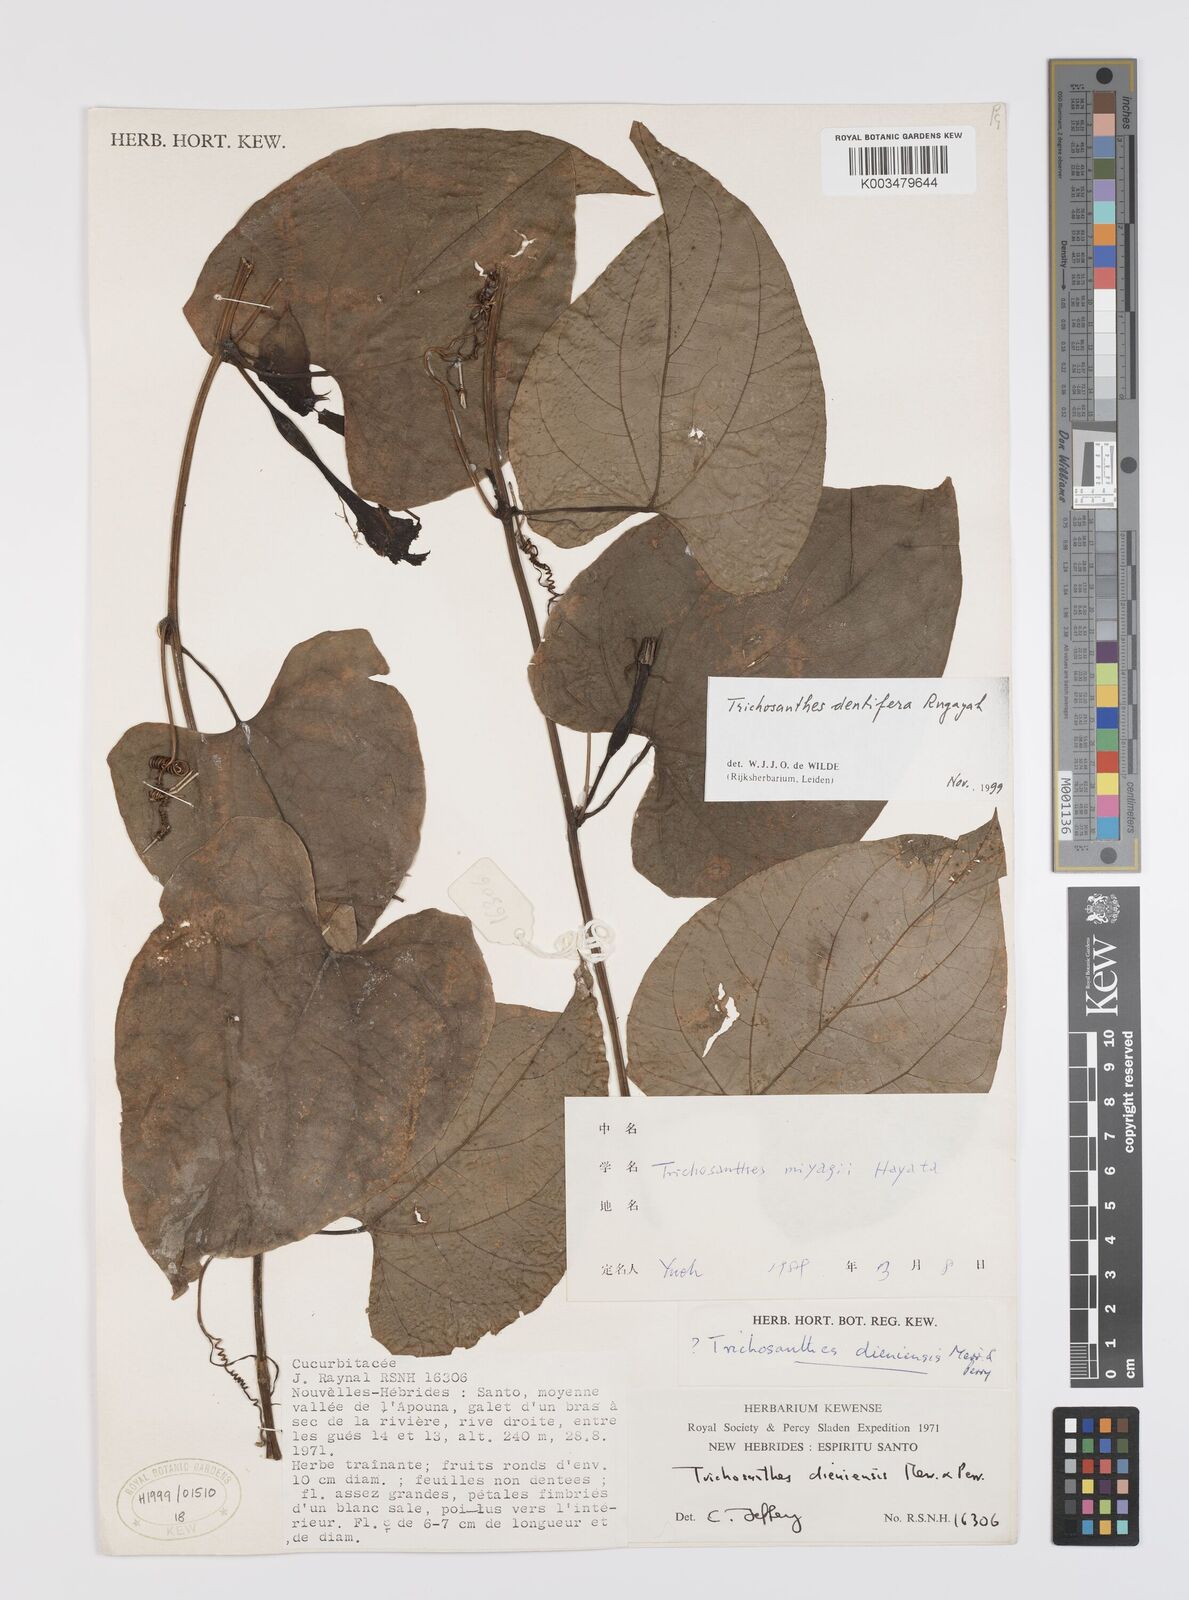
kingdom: Plantae
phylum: Tracheophyta
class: Magnoliopsida
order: Cucurbitales
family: Cucurbitaceae
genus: Trichosanthes
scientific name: Trichosanthes dentifera
